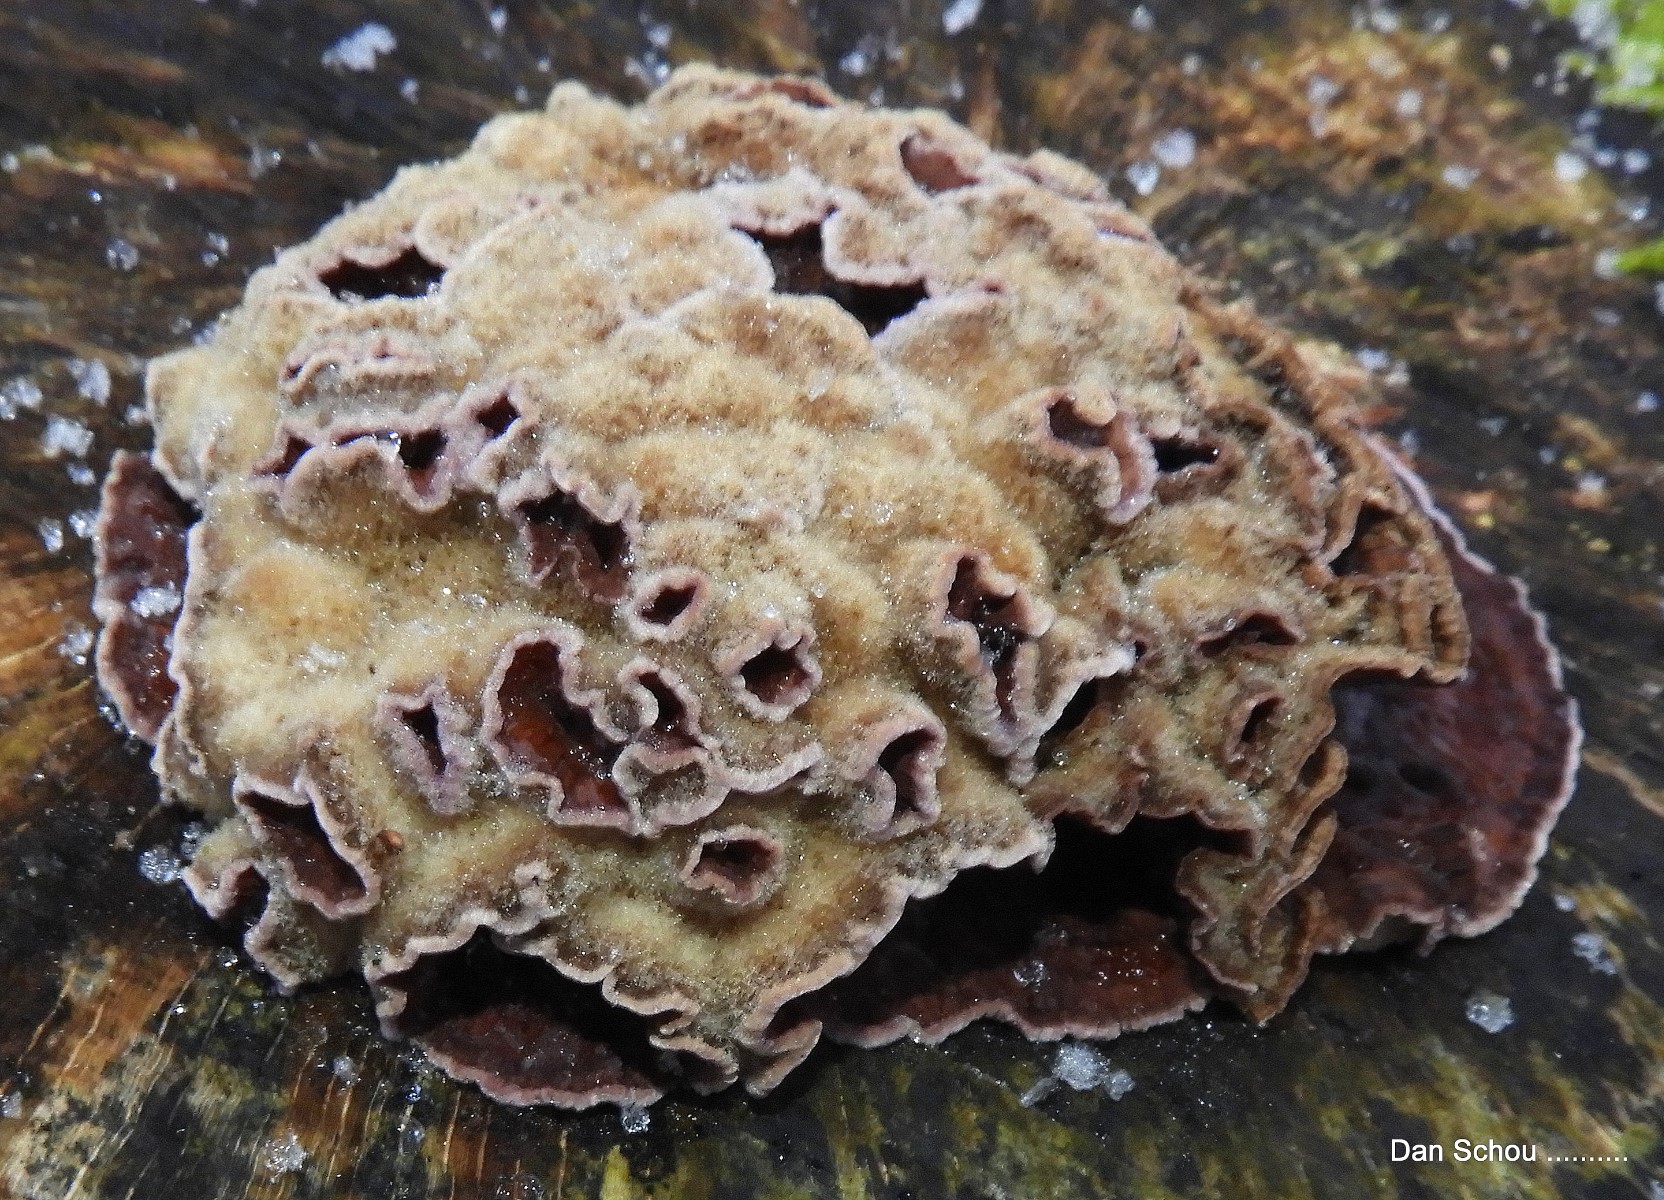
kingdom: Fungi
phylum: Basidiomycota
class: Agaricomycetes
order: Agaricales
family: Cyphellaceae
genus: Chondrostereum
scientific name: Chondrostereum purpureum
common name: purpurlædersvamp
